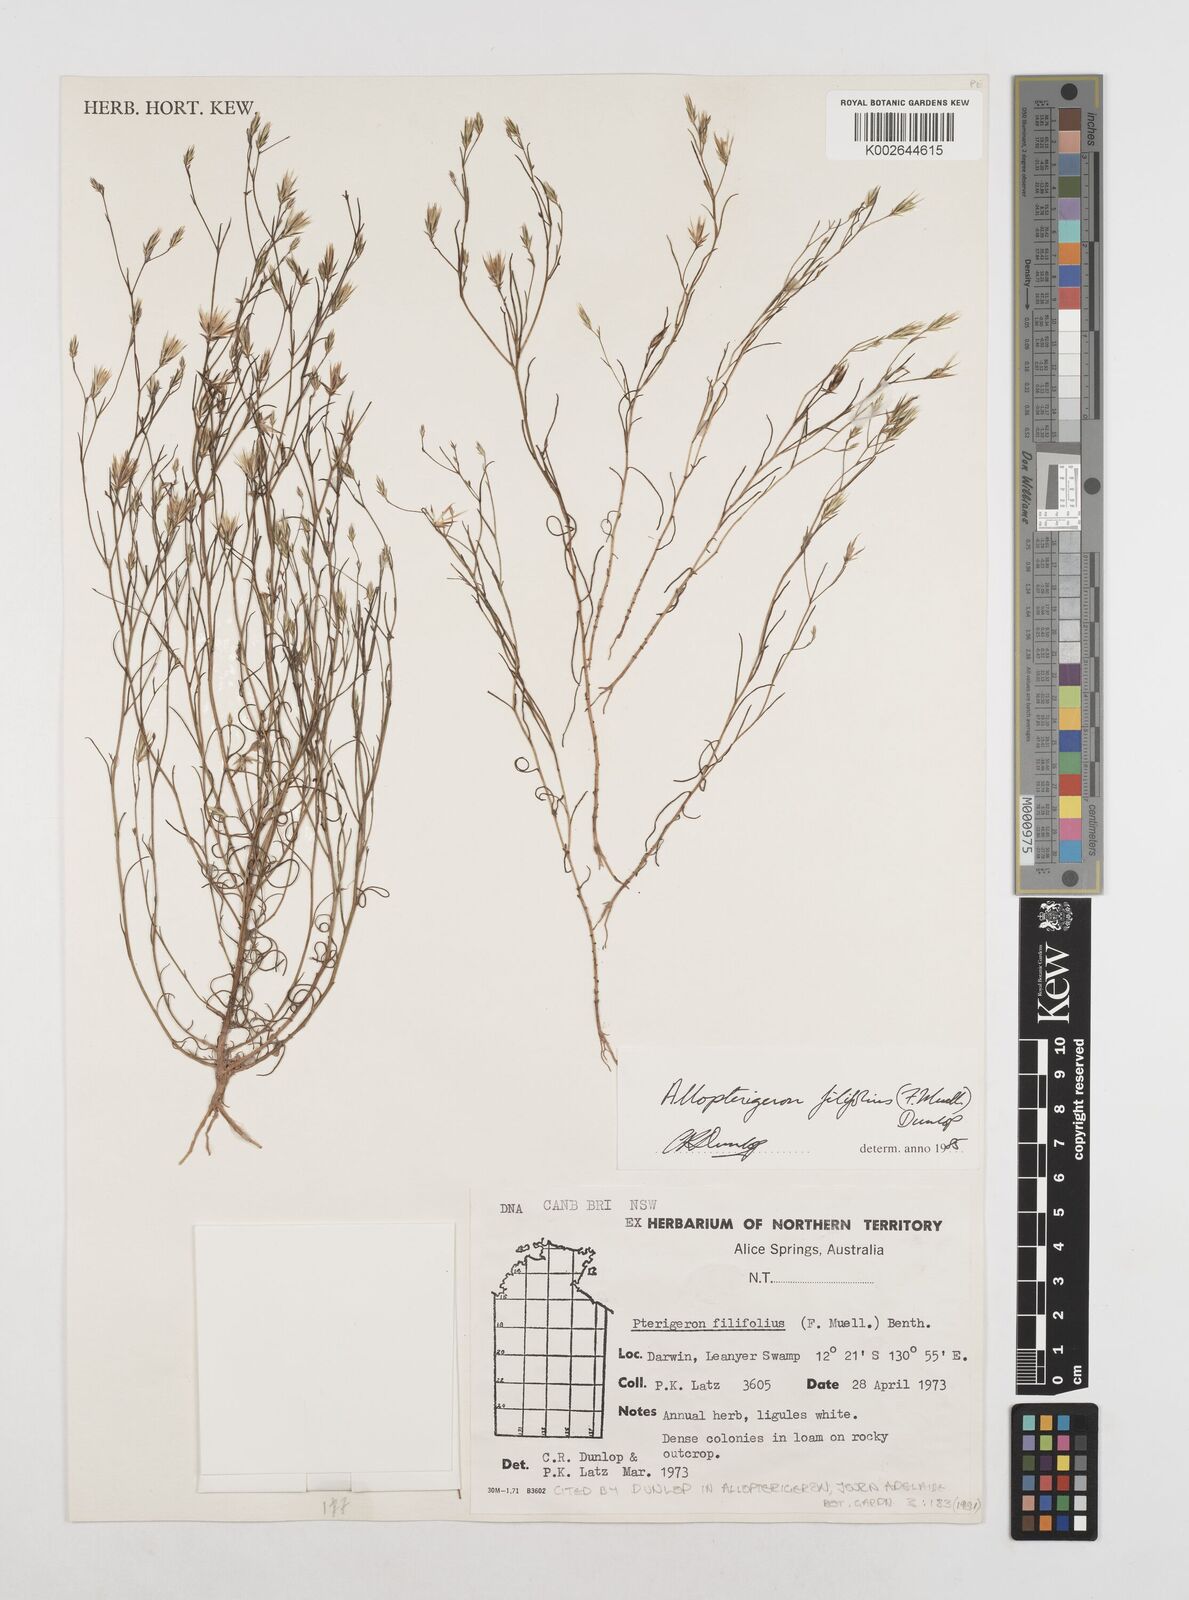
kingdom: Plantae
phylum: Tracheophyta
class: Magnoliopsida
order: Asterales
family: Asteraceae
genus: Allopterigeron
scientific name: Allopterigeron filifolius
